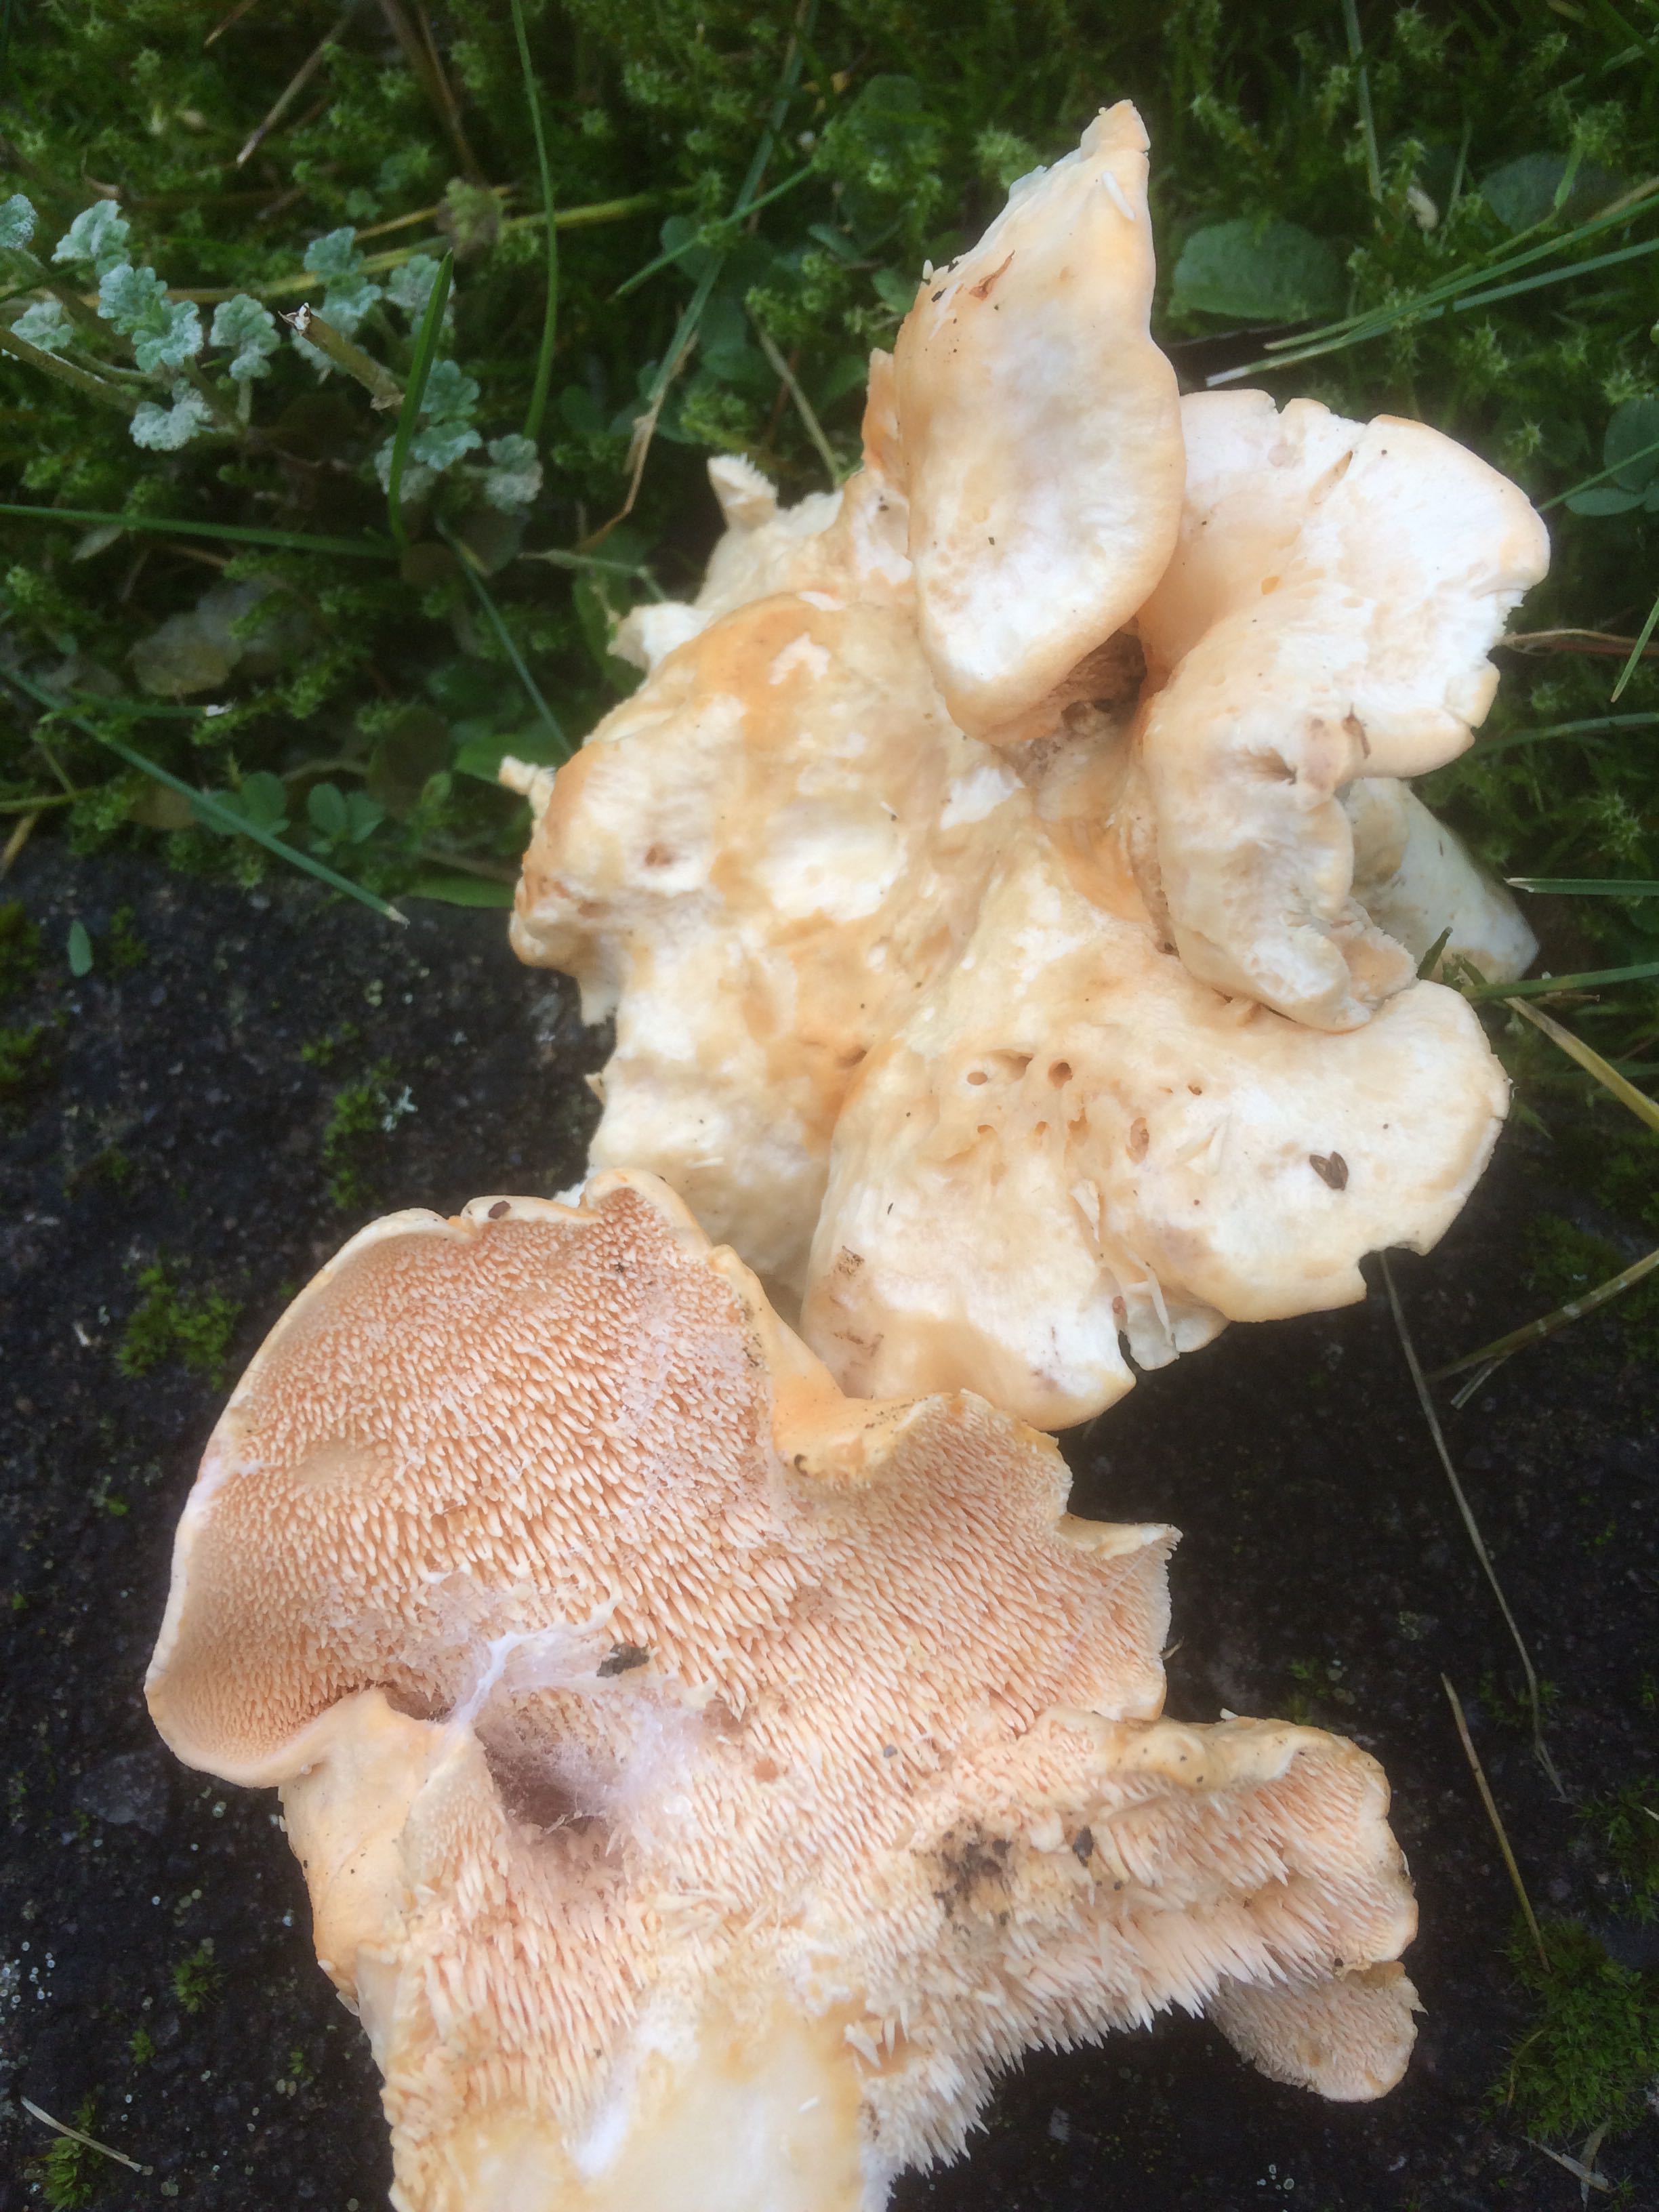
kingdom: Fungi
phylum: Basidiomycota
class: Agaricomycetes
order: Cantharellales
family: Hydnaceae
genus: Hydnum
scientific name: Hydnum repandum
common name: almindelig pigsvamp
